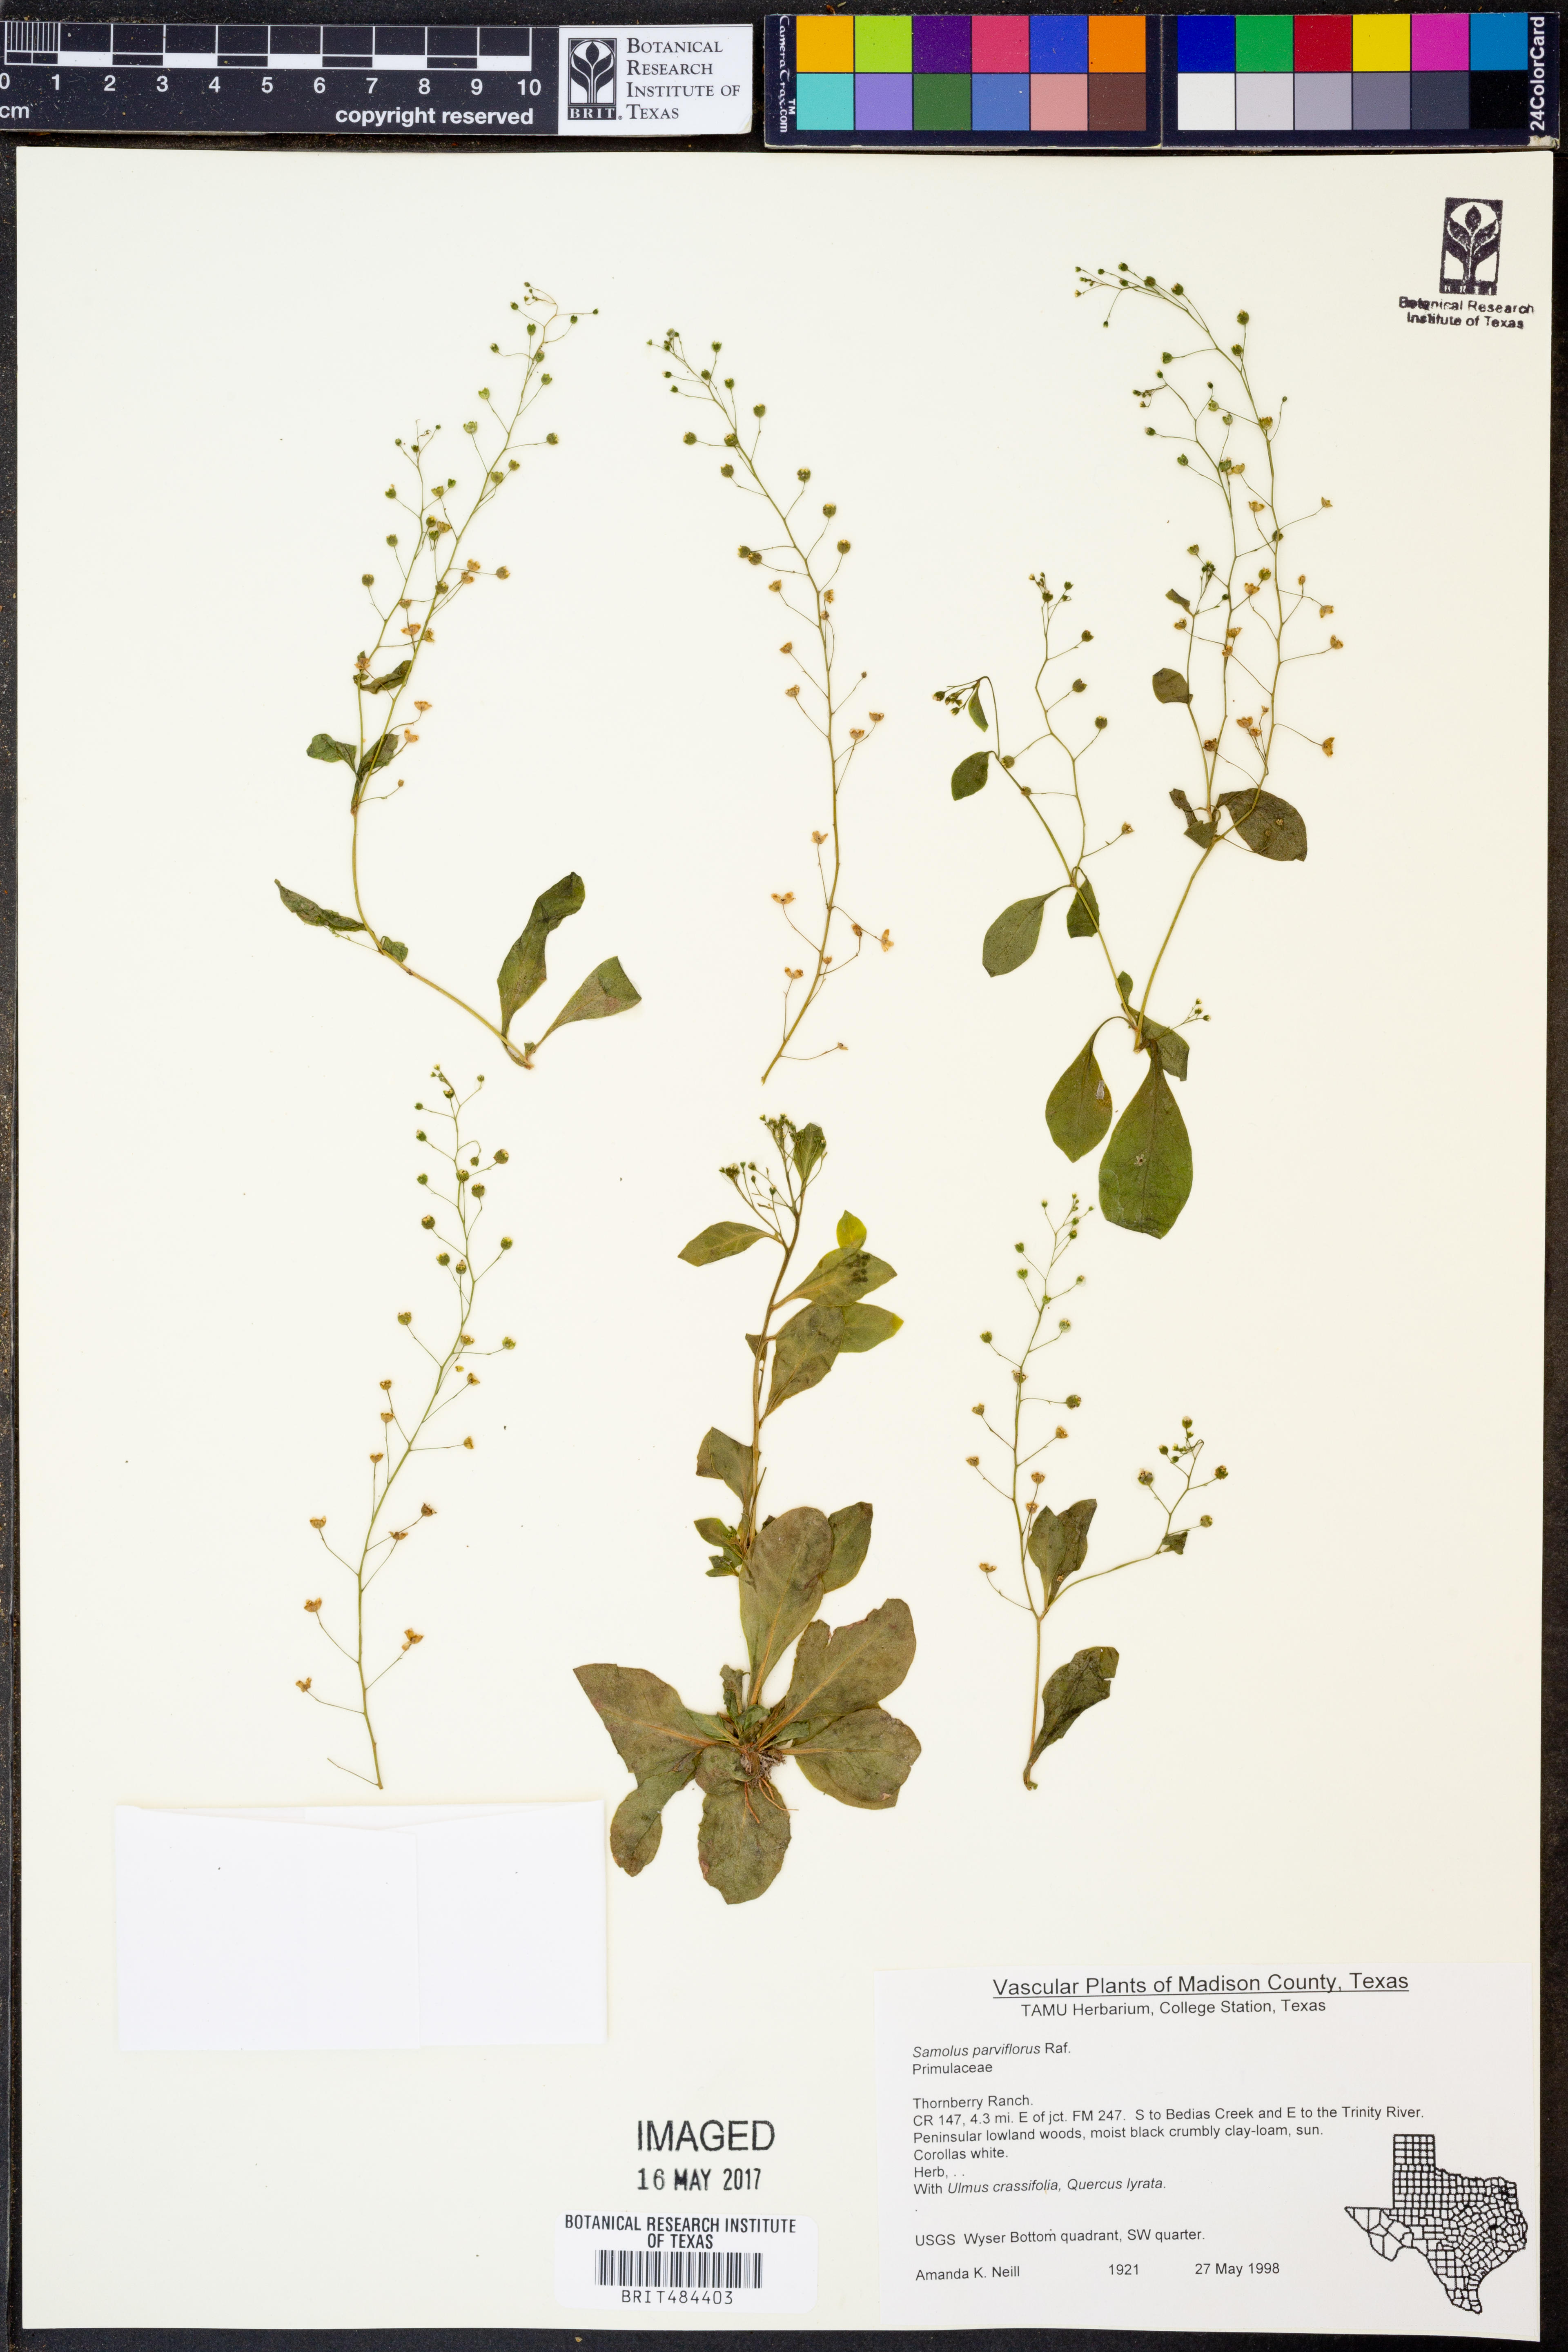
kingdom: Plantae
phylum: Tracheophyta
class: Magnoliopsida
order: Ericales
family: Primulaceae
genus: Samolus
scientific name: Samolus parviflorus
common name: False water pimpernel
